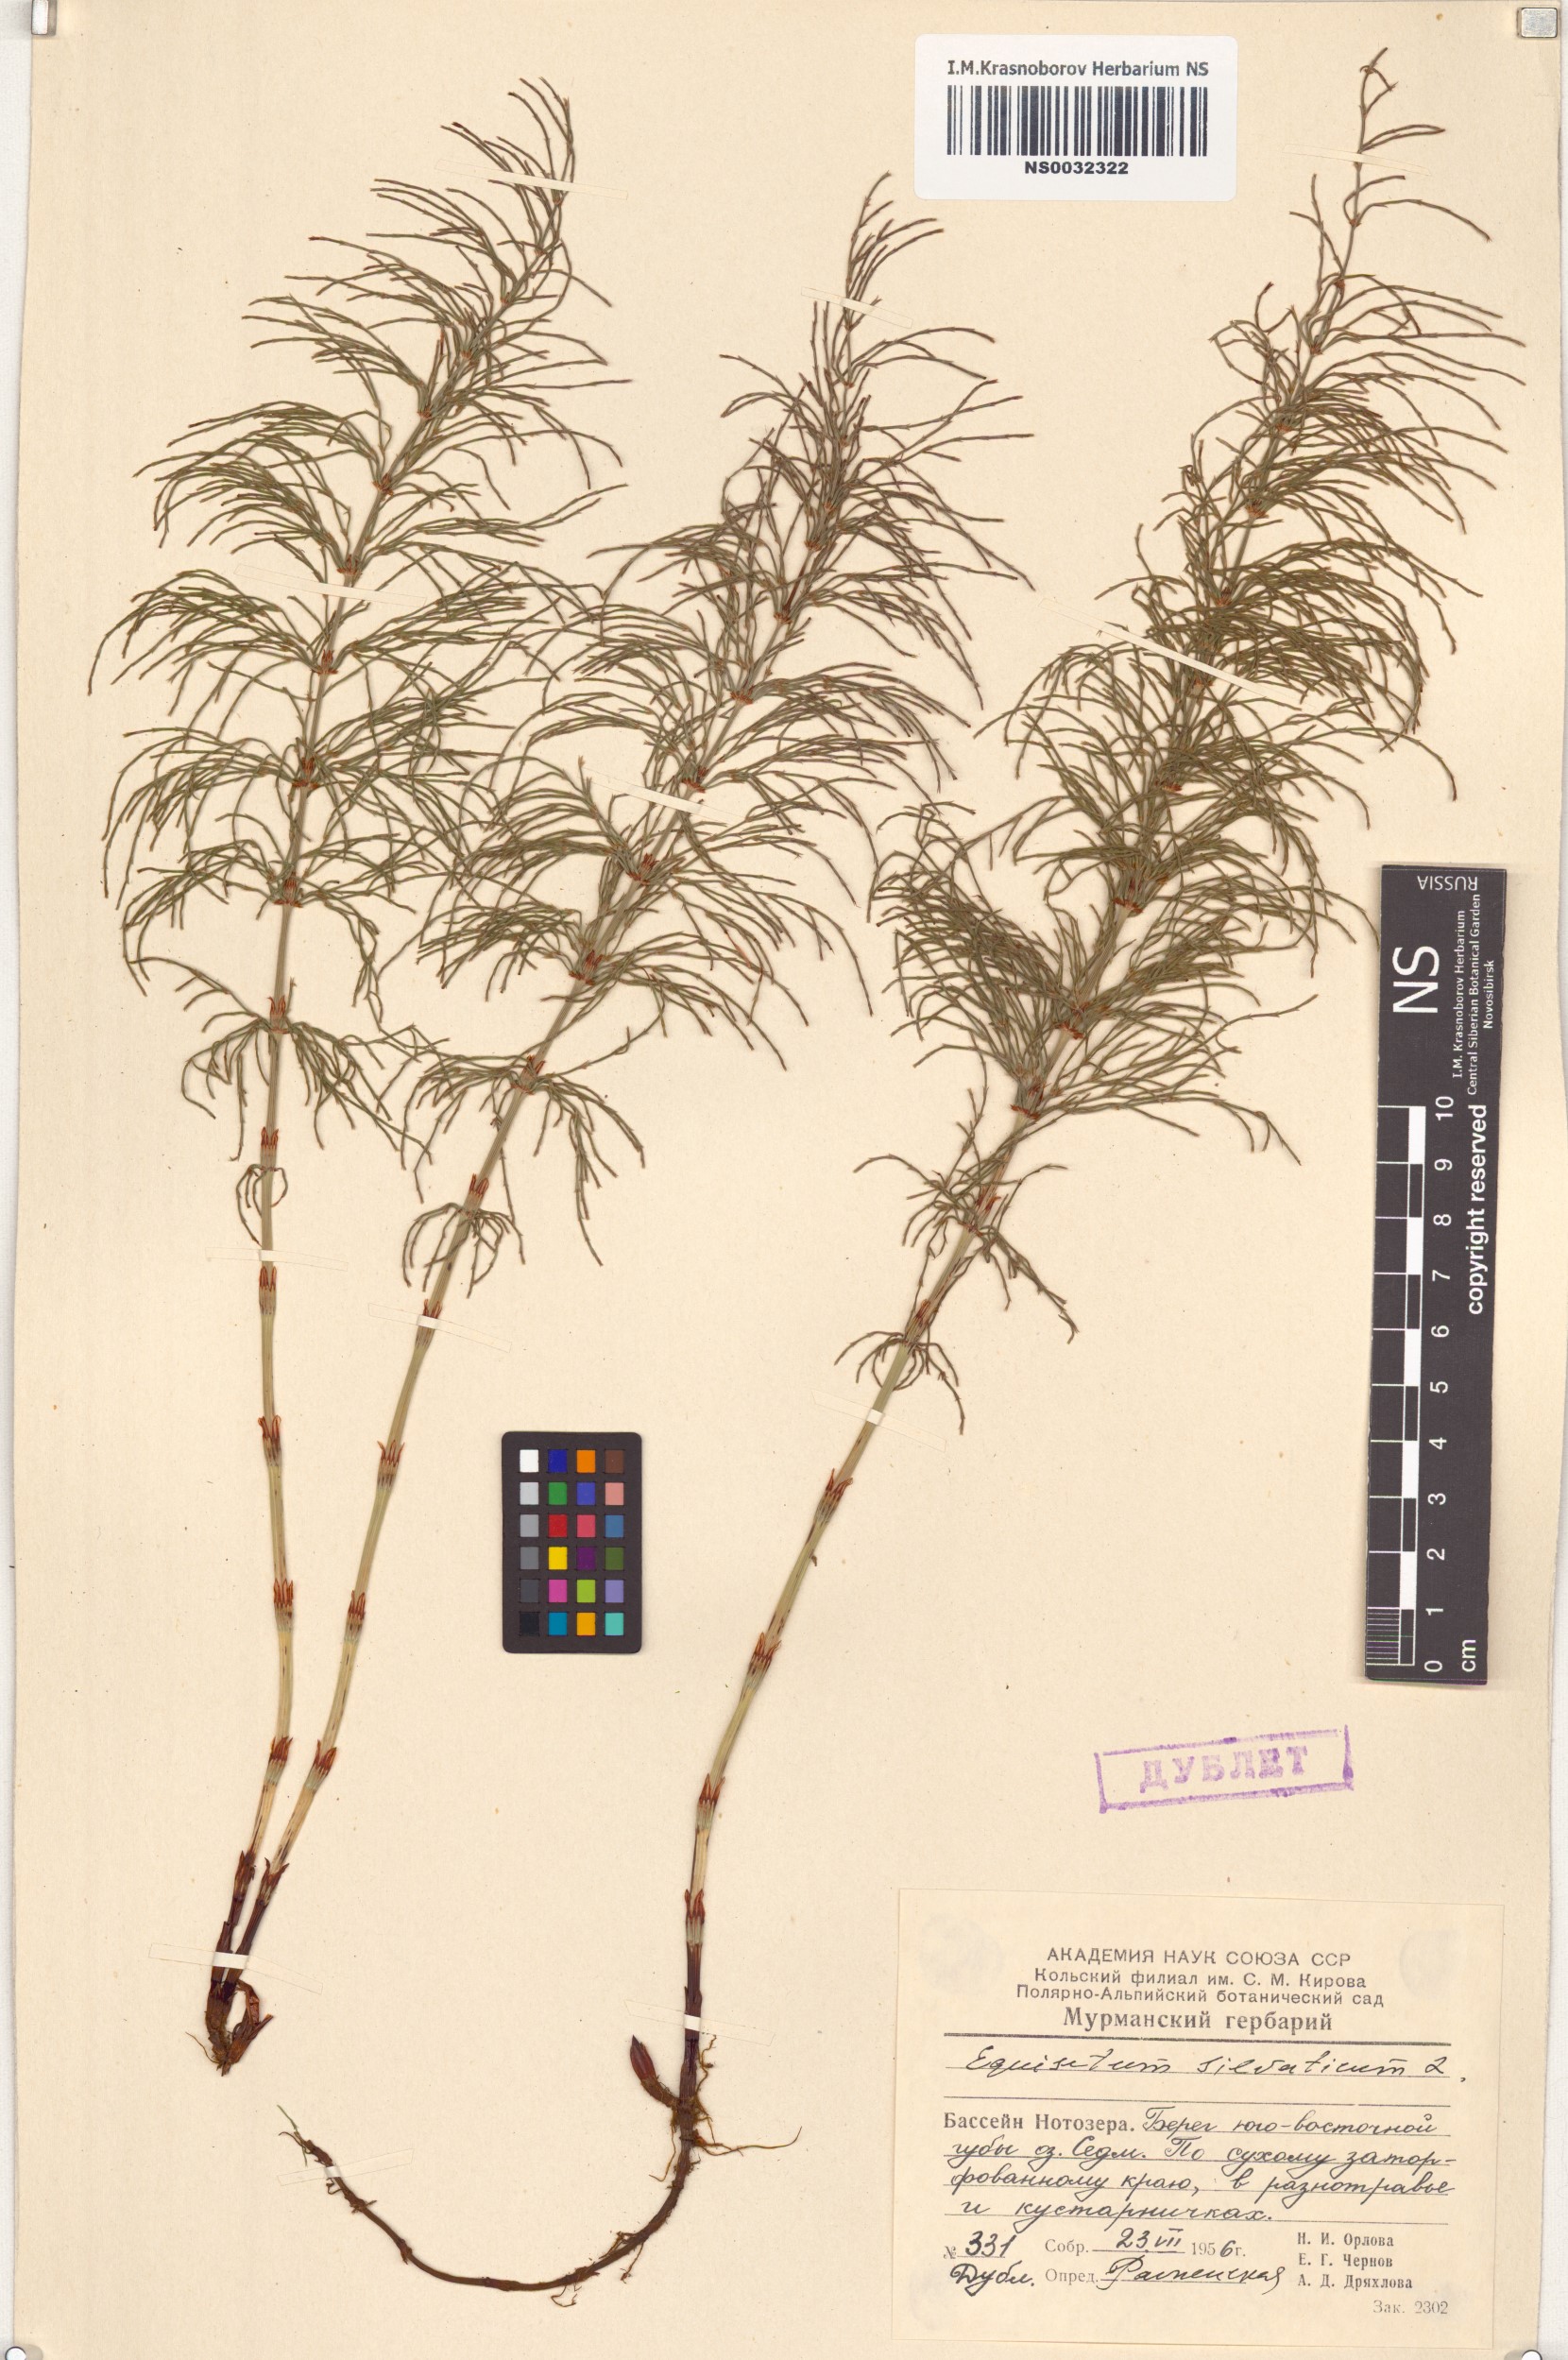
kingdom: Plantae
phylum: Tracheophyta
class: Polypodiopsida
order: Equisetales
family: Equisetaceae
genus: Equisetum
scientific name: Equisetum sylvaticum
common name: Wood horsetail
